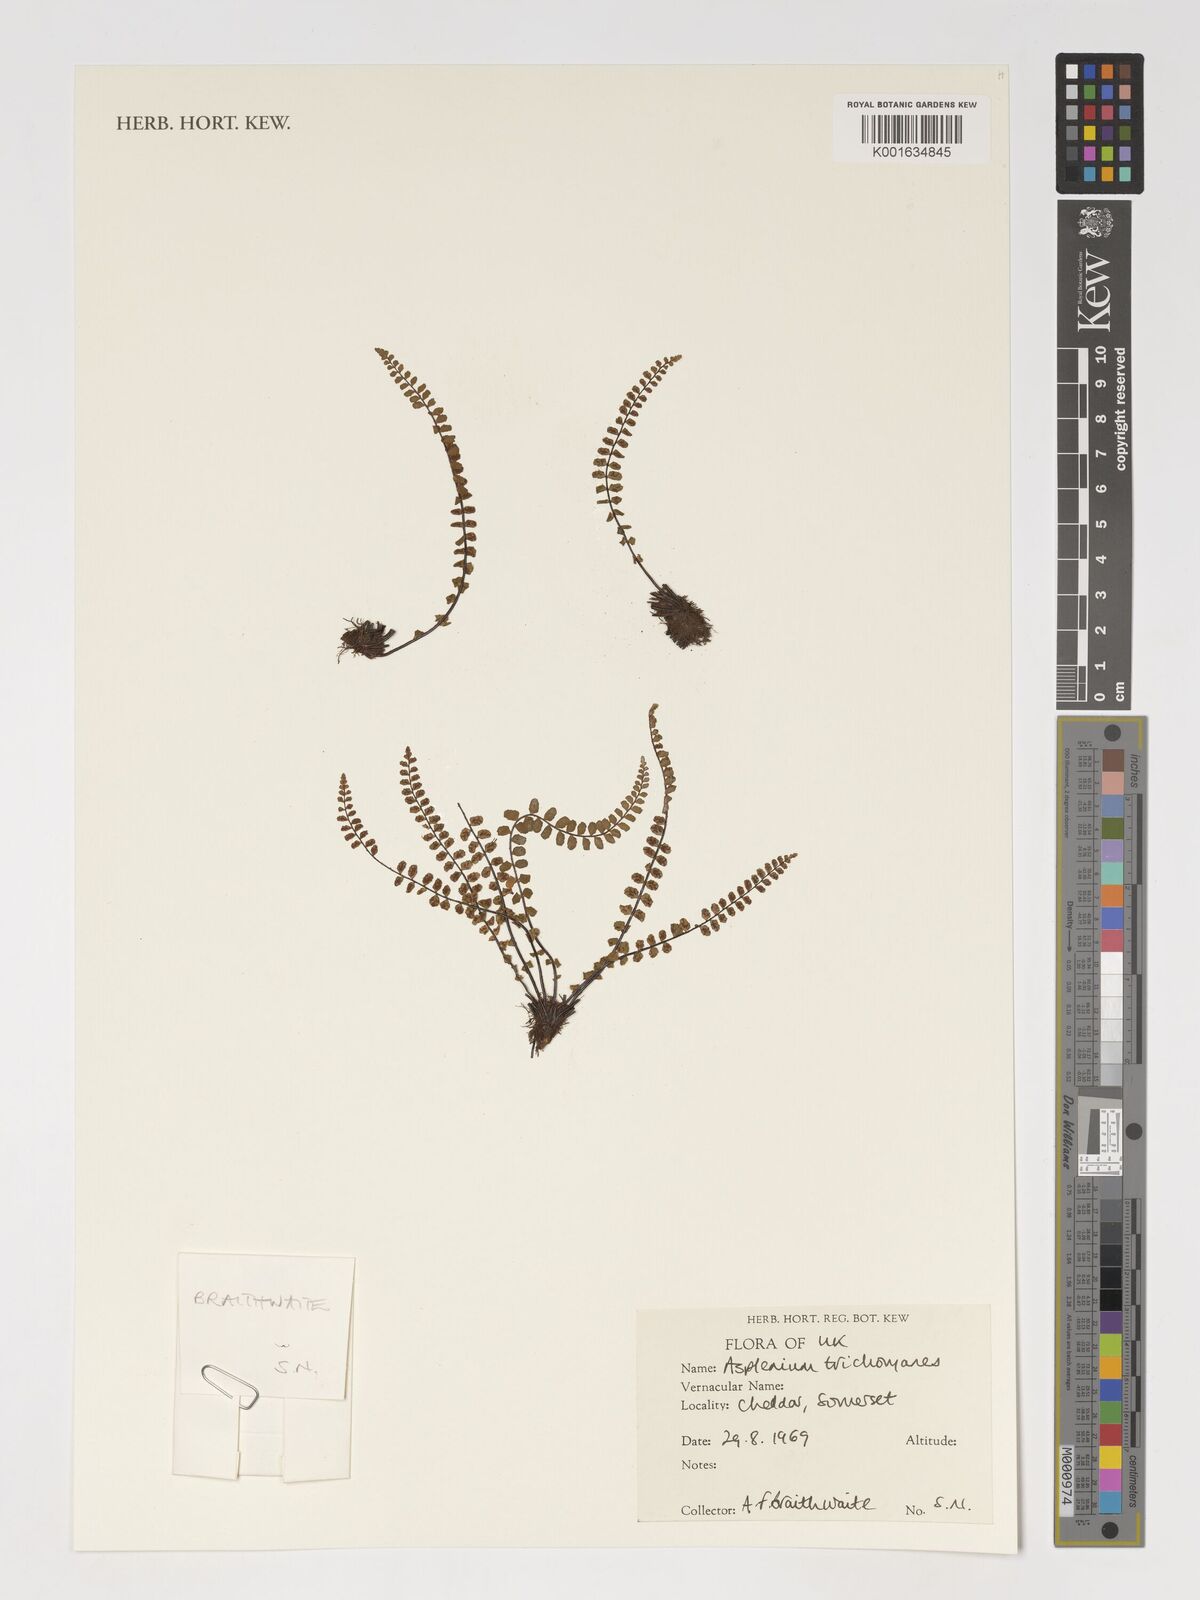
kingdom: Plantae
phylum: Tracheophyta
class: Polypodiopsida
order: Polypodiales
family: Aspleniaceae
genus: Asplenium
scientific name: Asplenium trichomanes
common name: Maidenhair spleenwort
